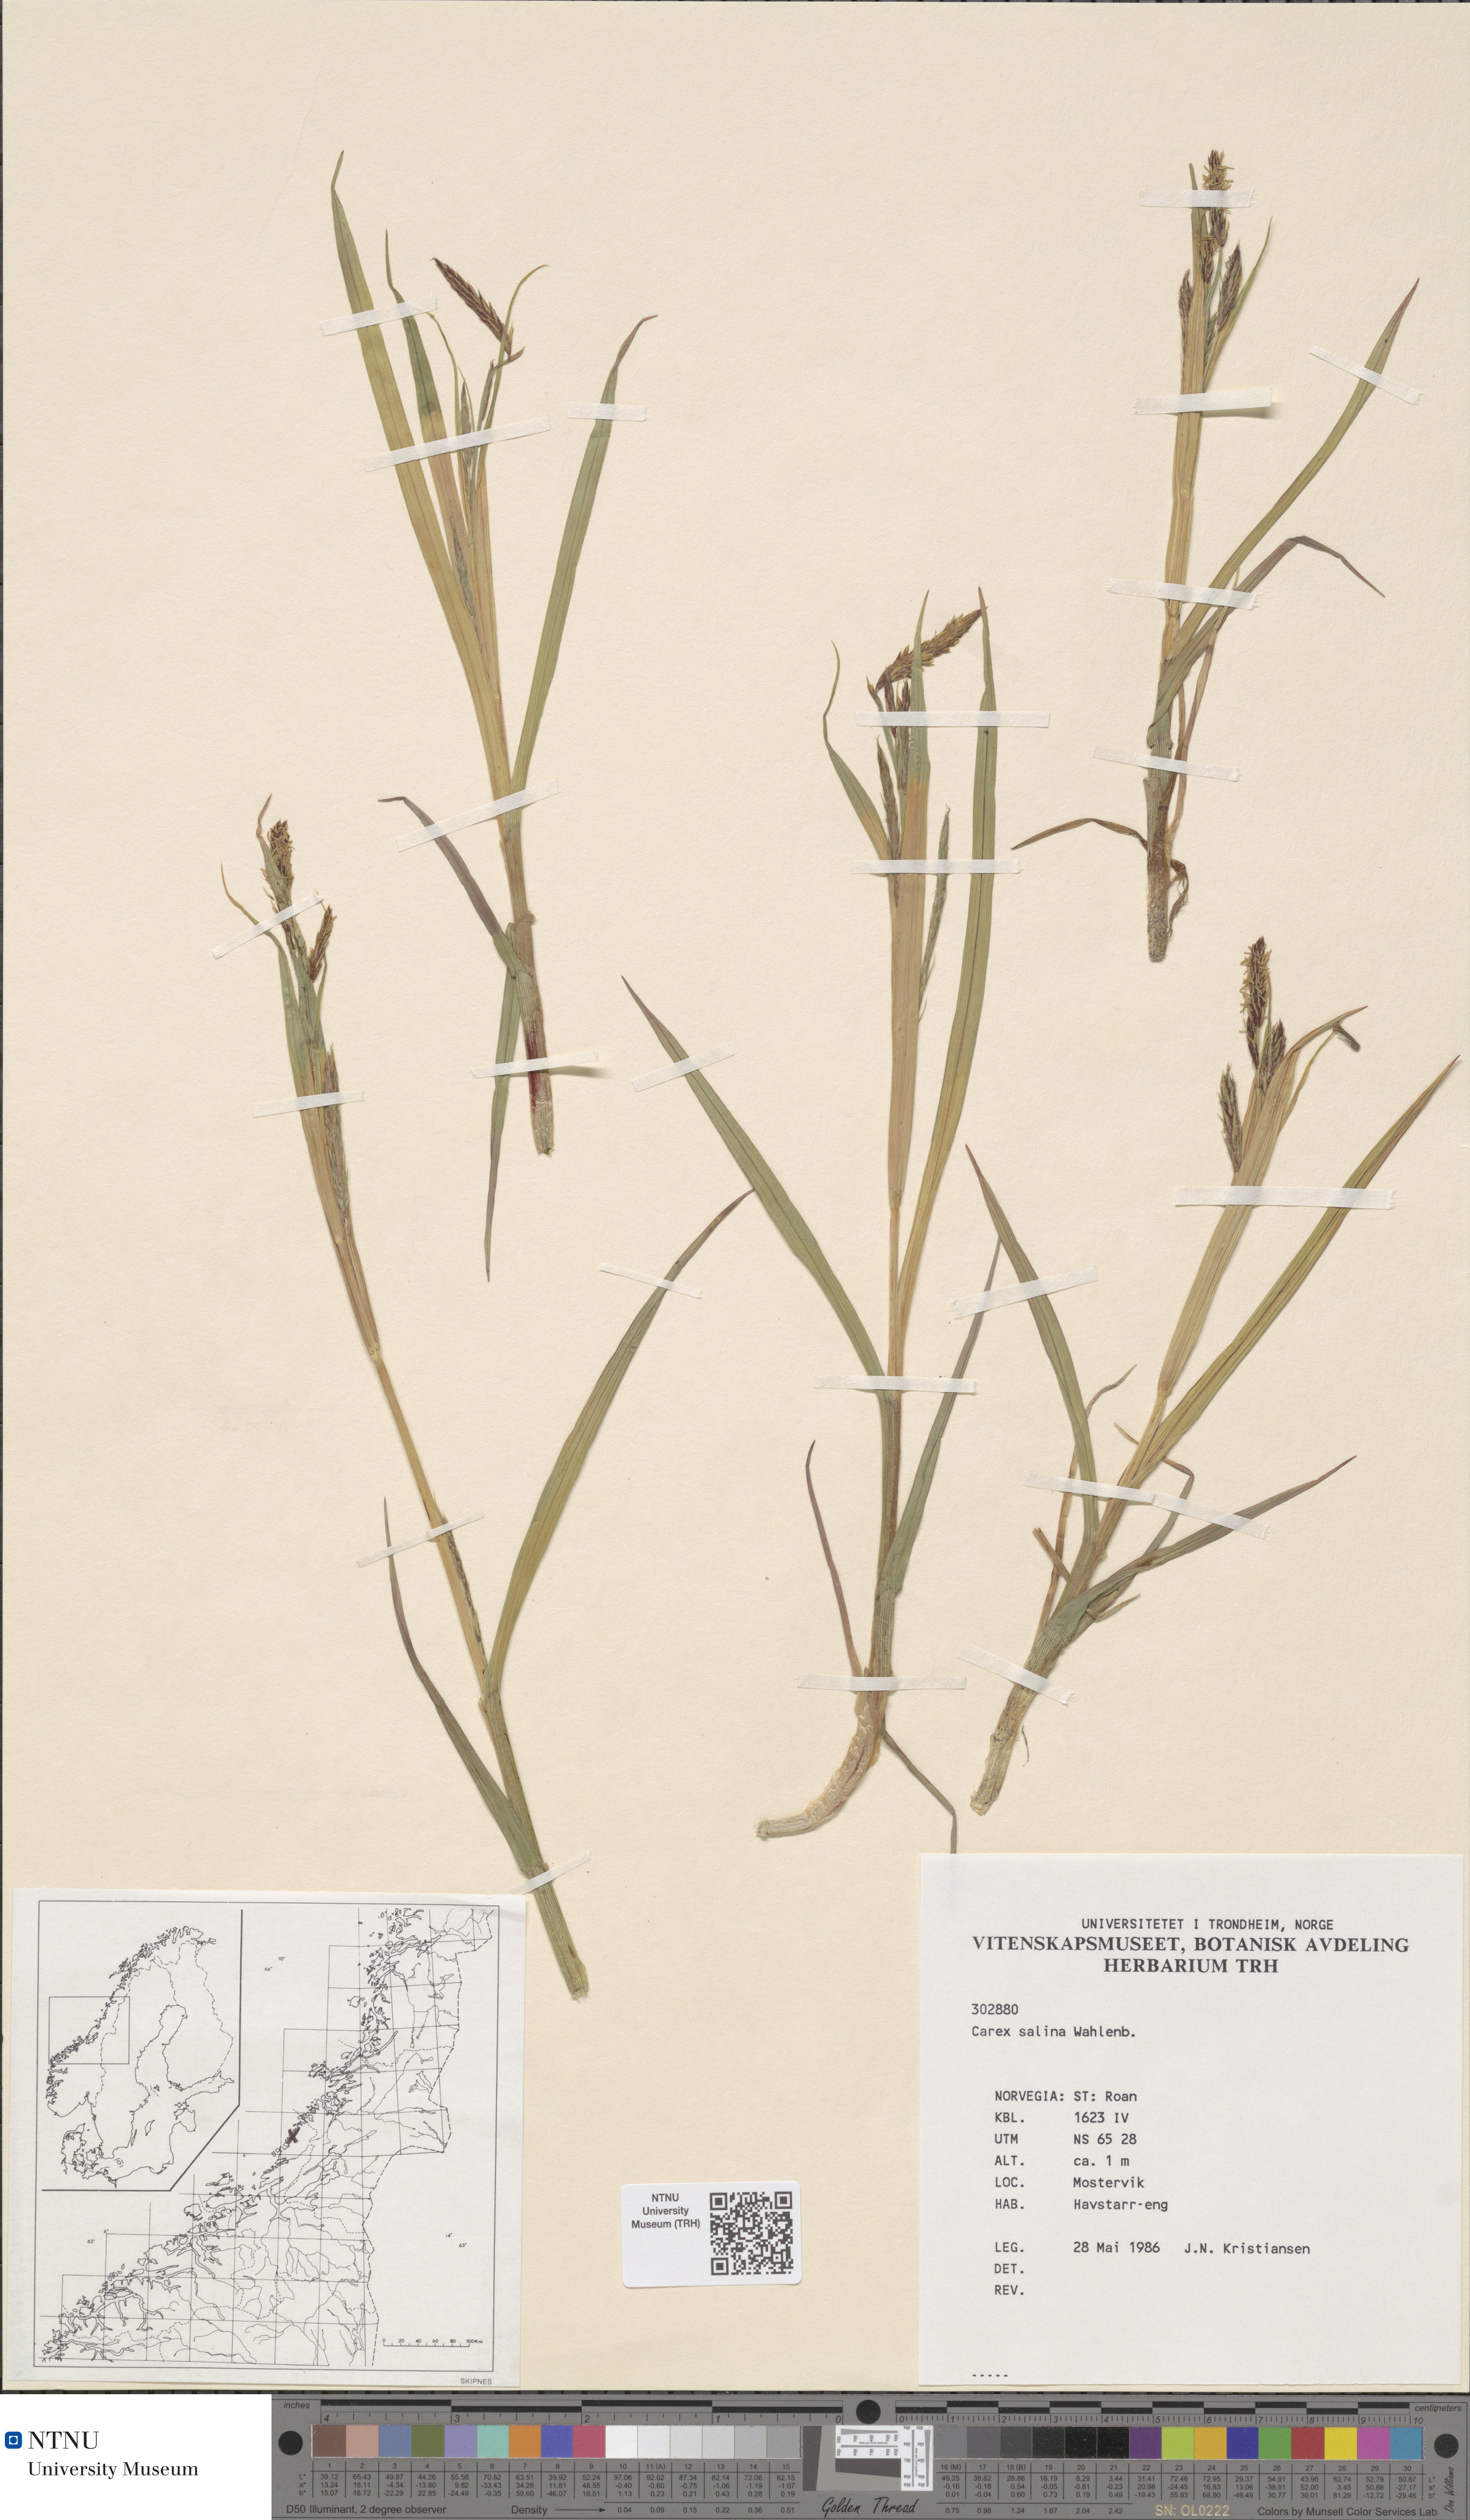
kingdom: Plantae
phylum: Tracheophyta
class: Liliopsida
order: Poales
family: Cyperaceae
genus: Carex
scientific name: Carex salina
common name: Saltmarsh sedge
